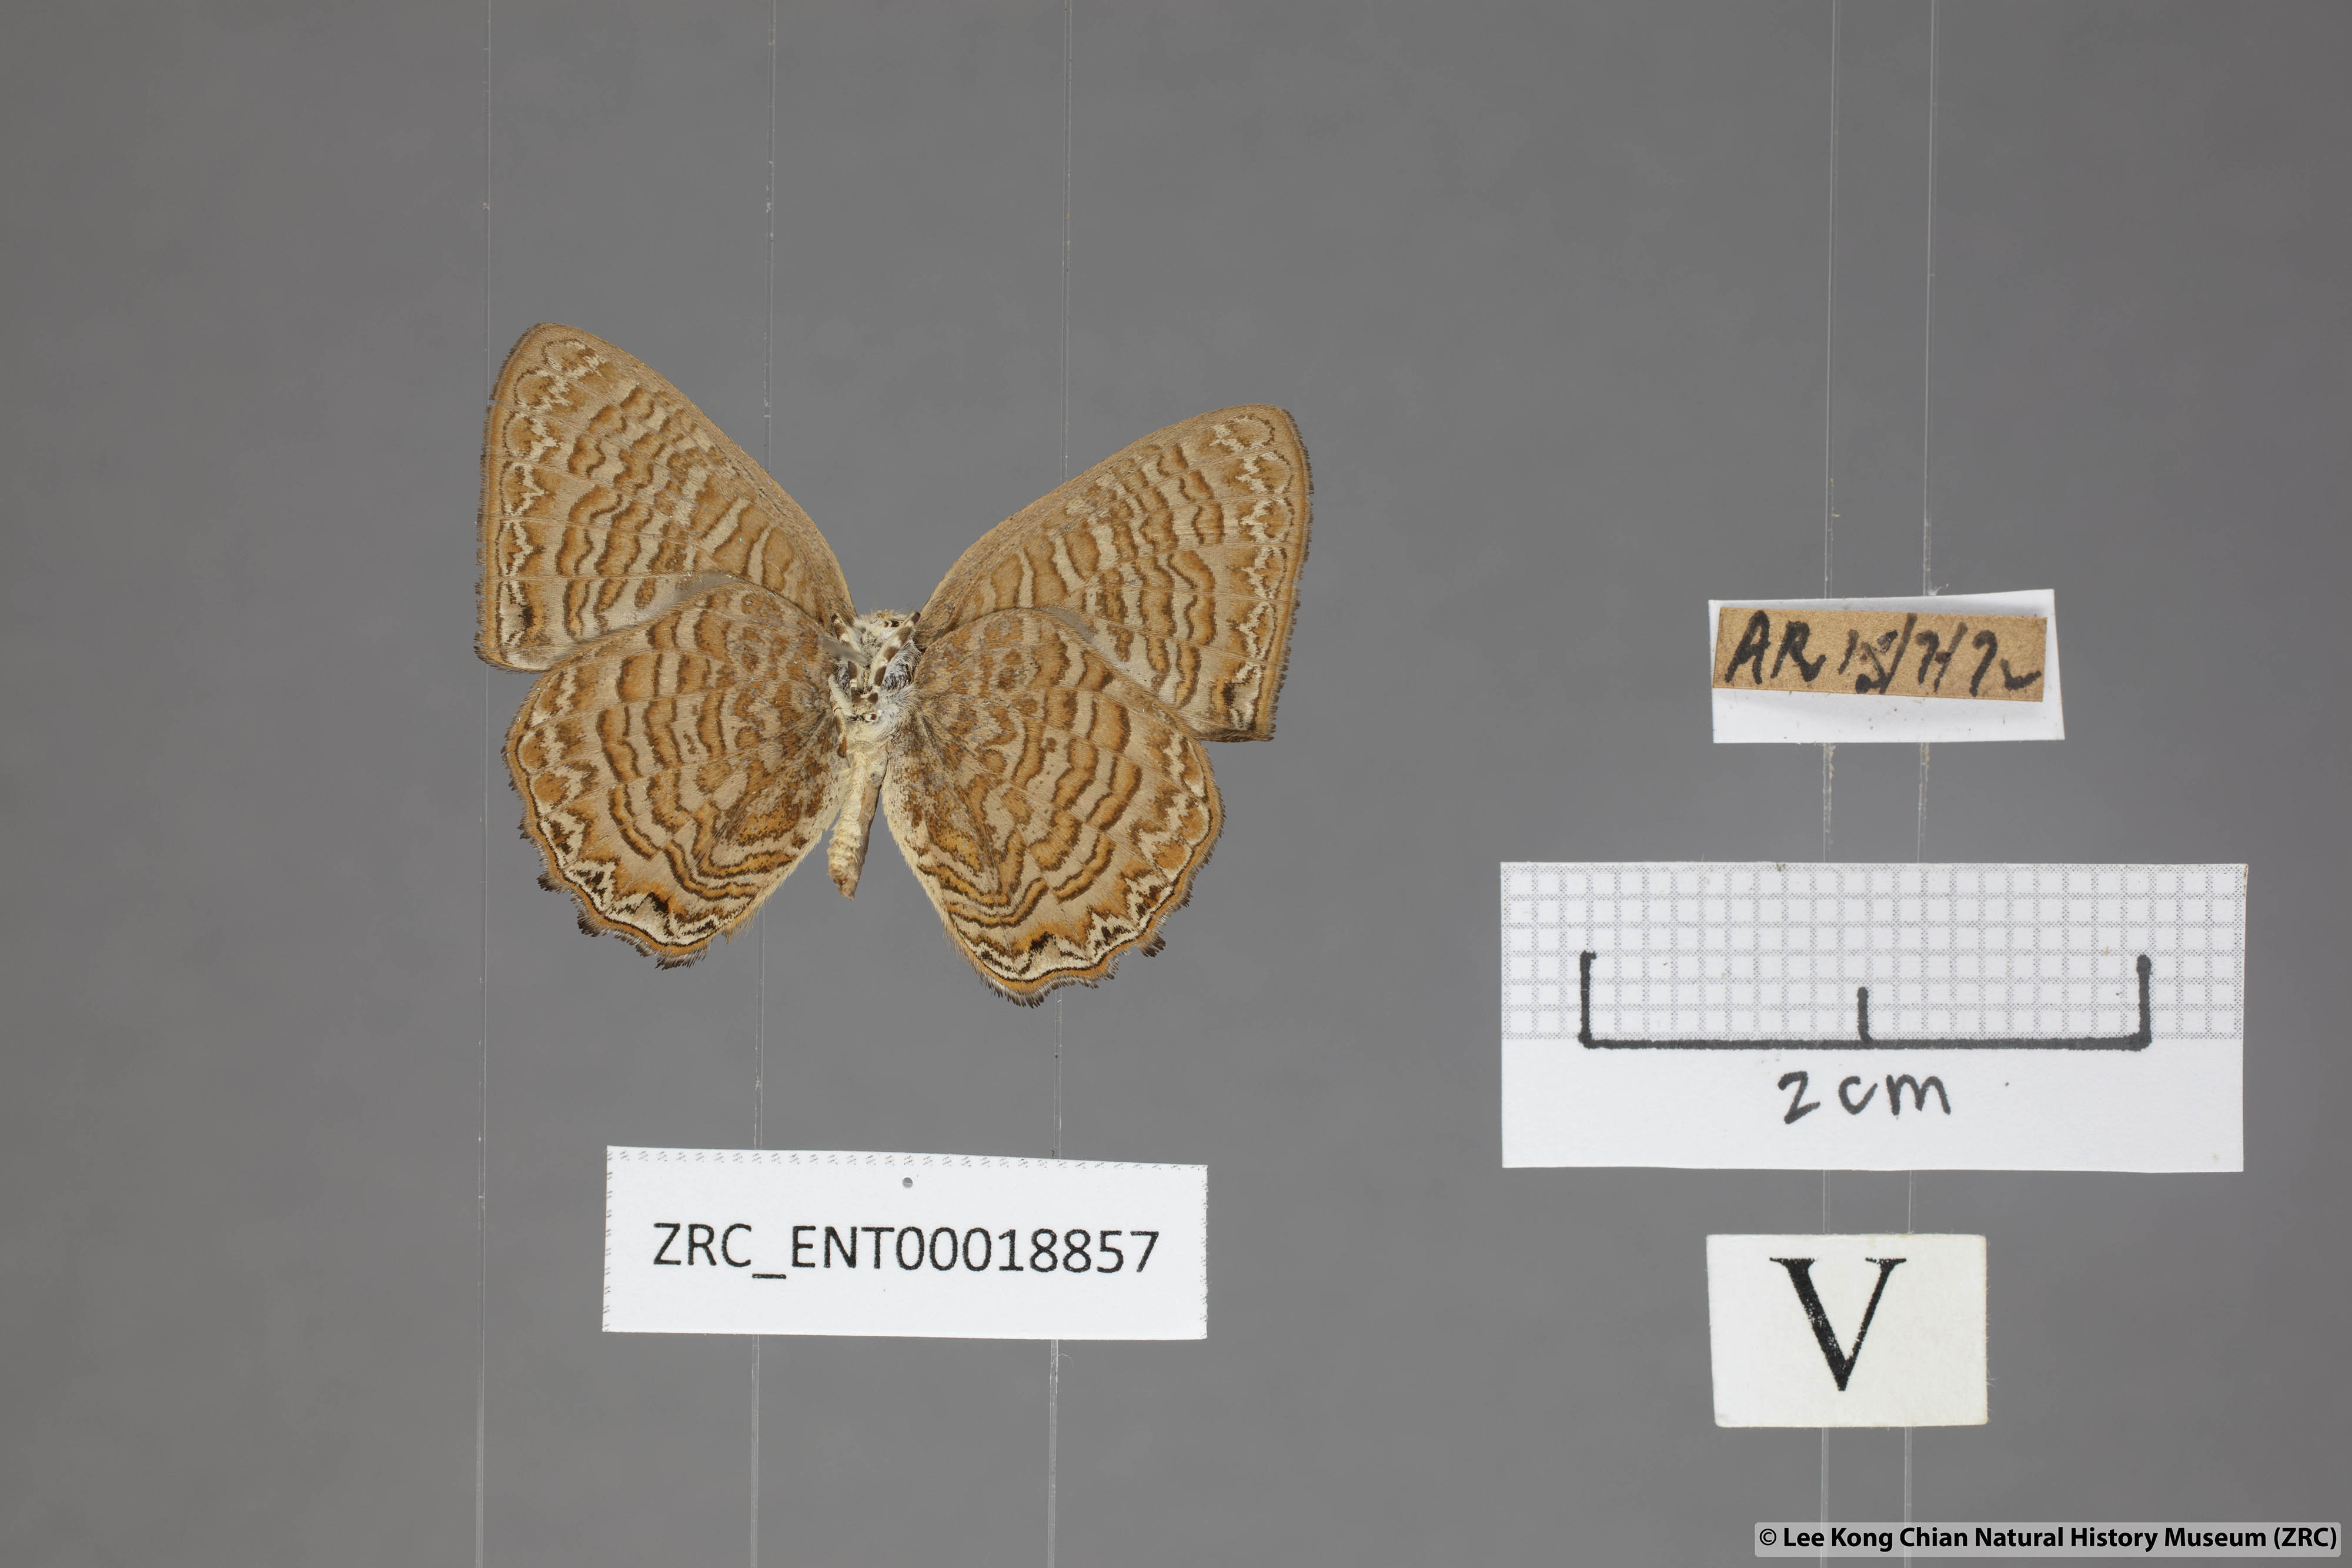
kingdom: Animalia
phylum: Arthropoda
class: Insecta
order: Lepidoptera
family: Lycaenidae
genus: Poritia
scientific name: Poritia sumatrae
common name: Sumatran gem
